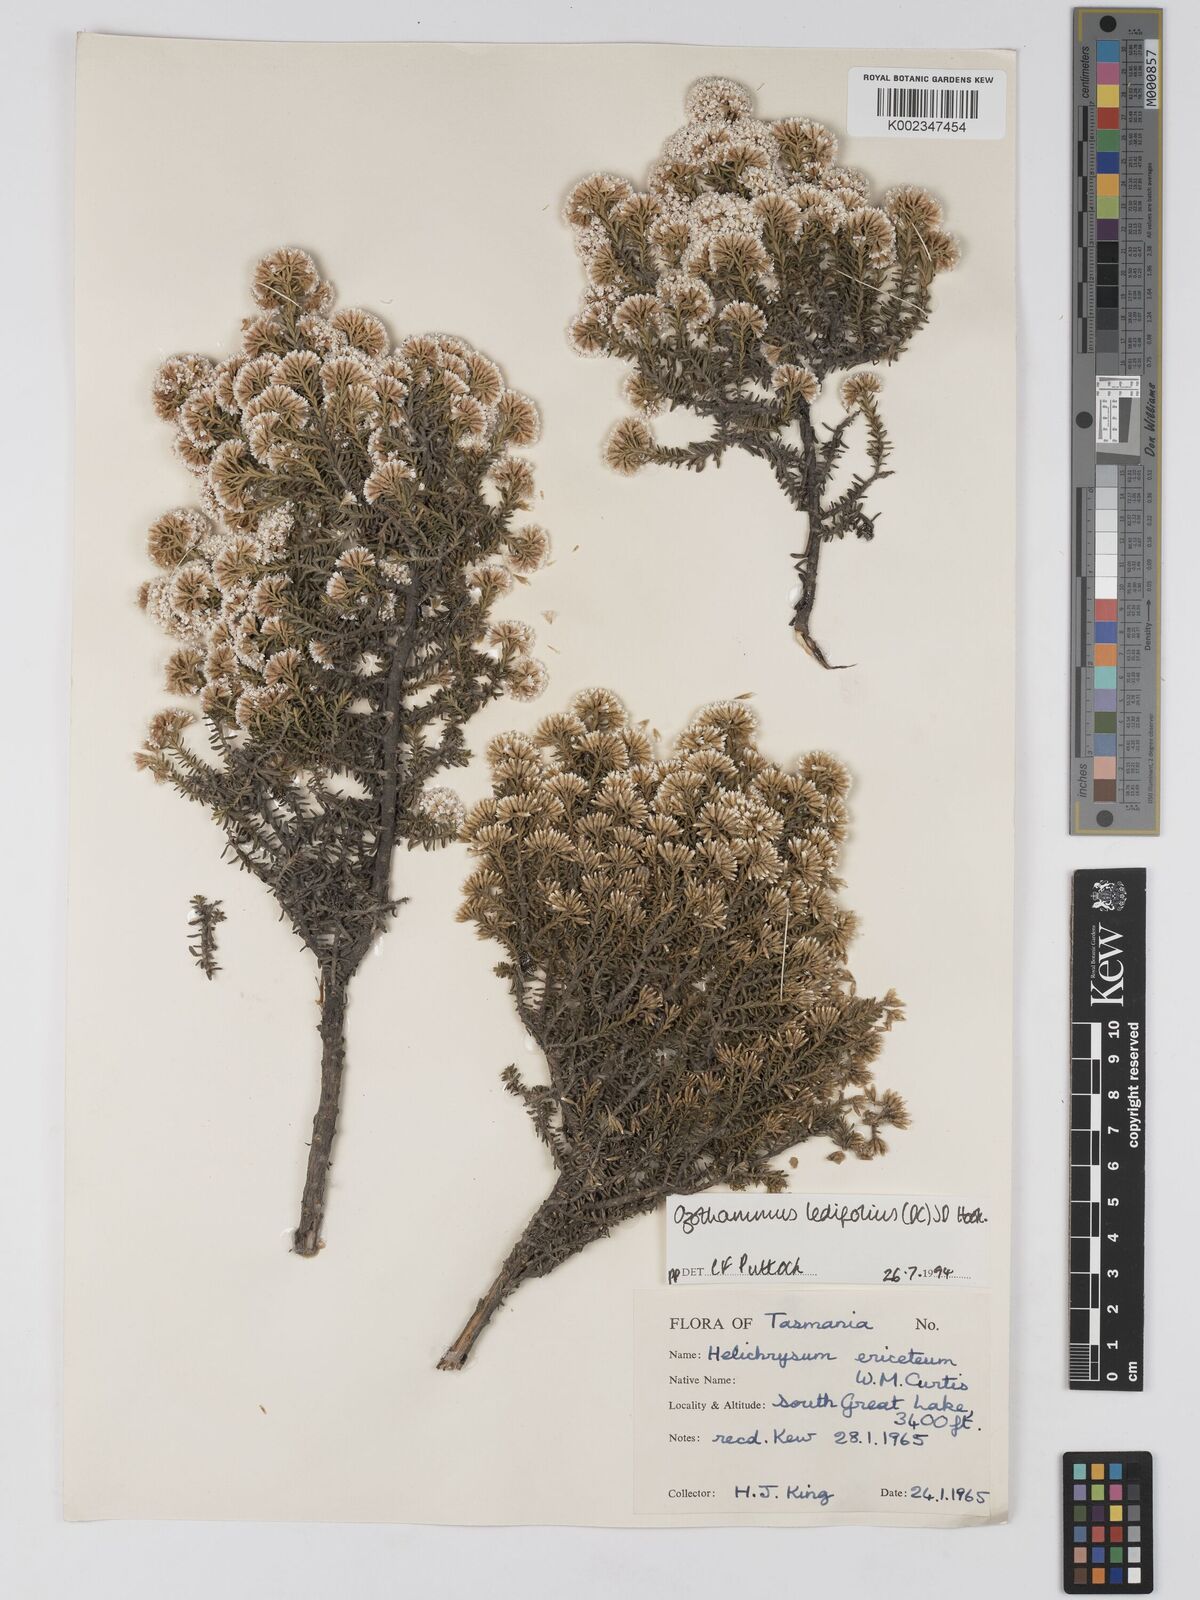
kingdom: Plantae
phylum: Tracheophyta
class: Magnoliopsida
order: Asterales
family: Asteraceae
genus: Ozothamnus
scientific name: Ozothamnus ledifolius
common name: Kerosene-weed
